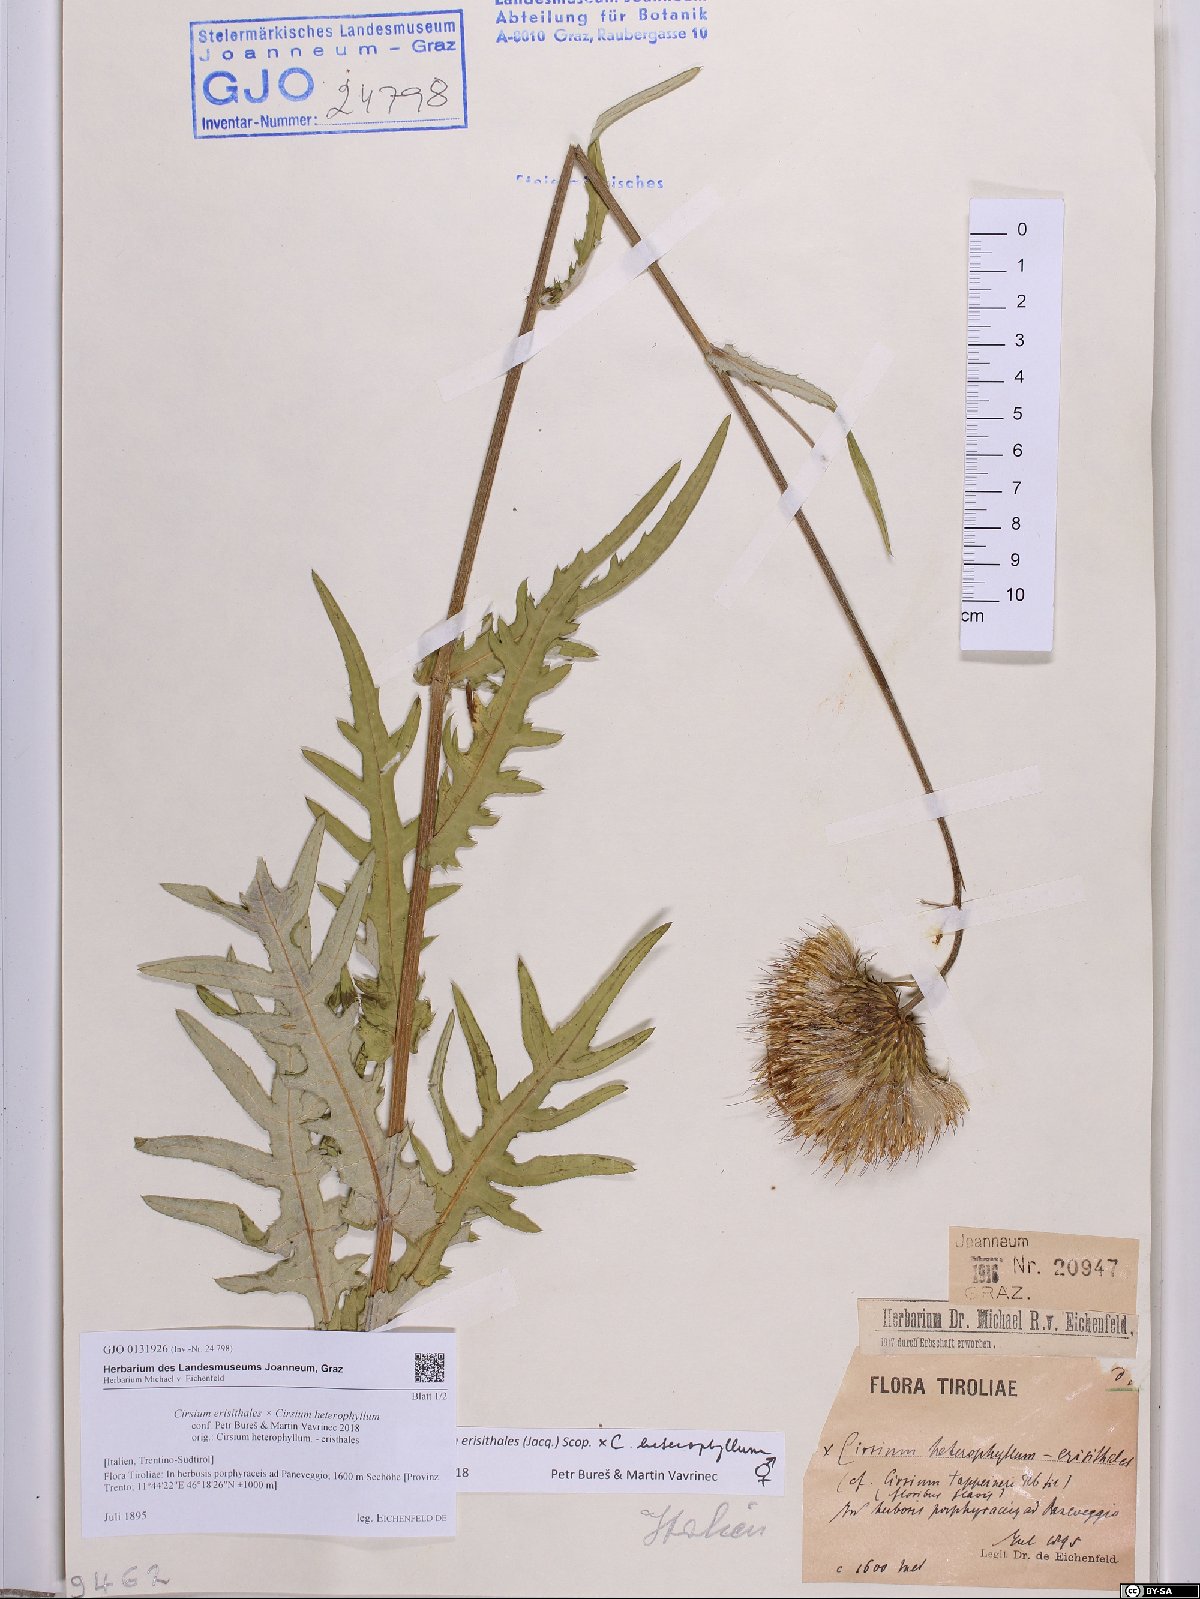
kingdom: Plantae
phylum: Tracheophyta
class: Magnoliopsida
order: Asterales
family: Asteraceae
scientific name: Asteraceae
